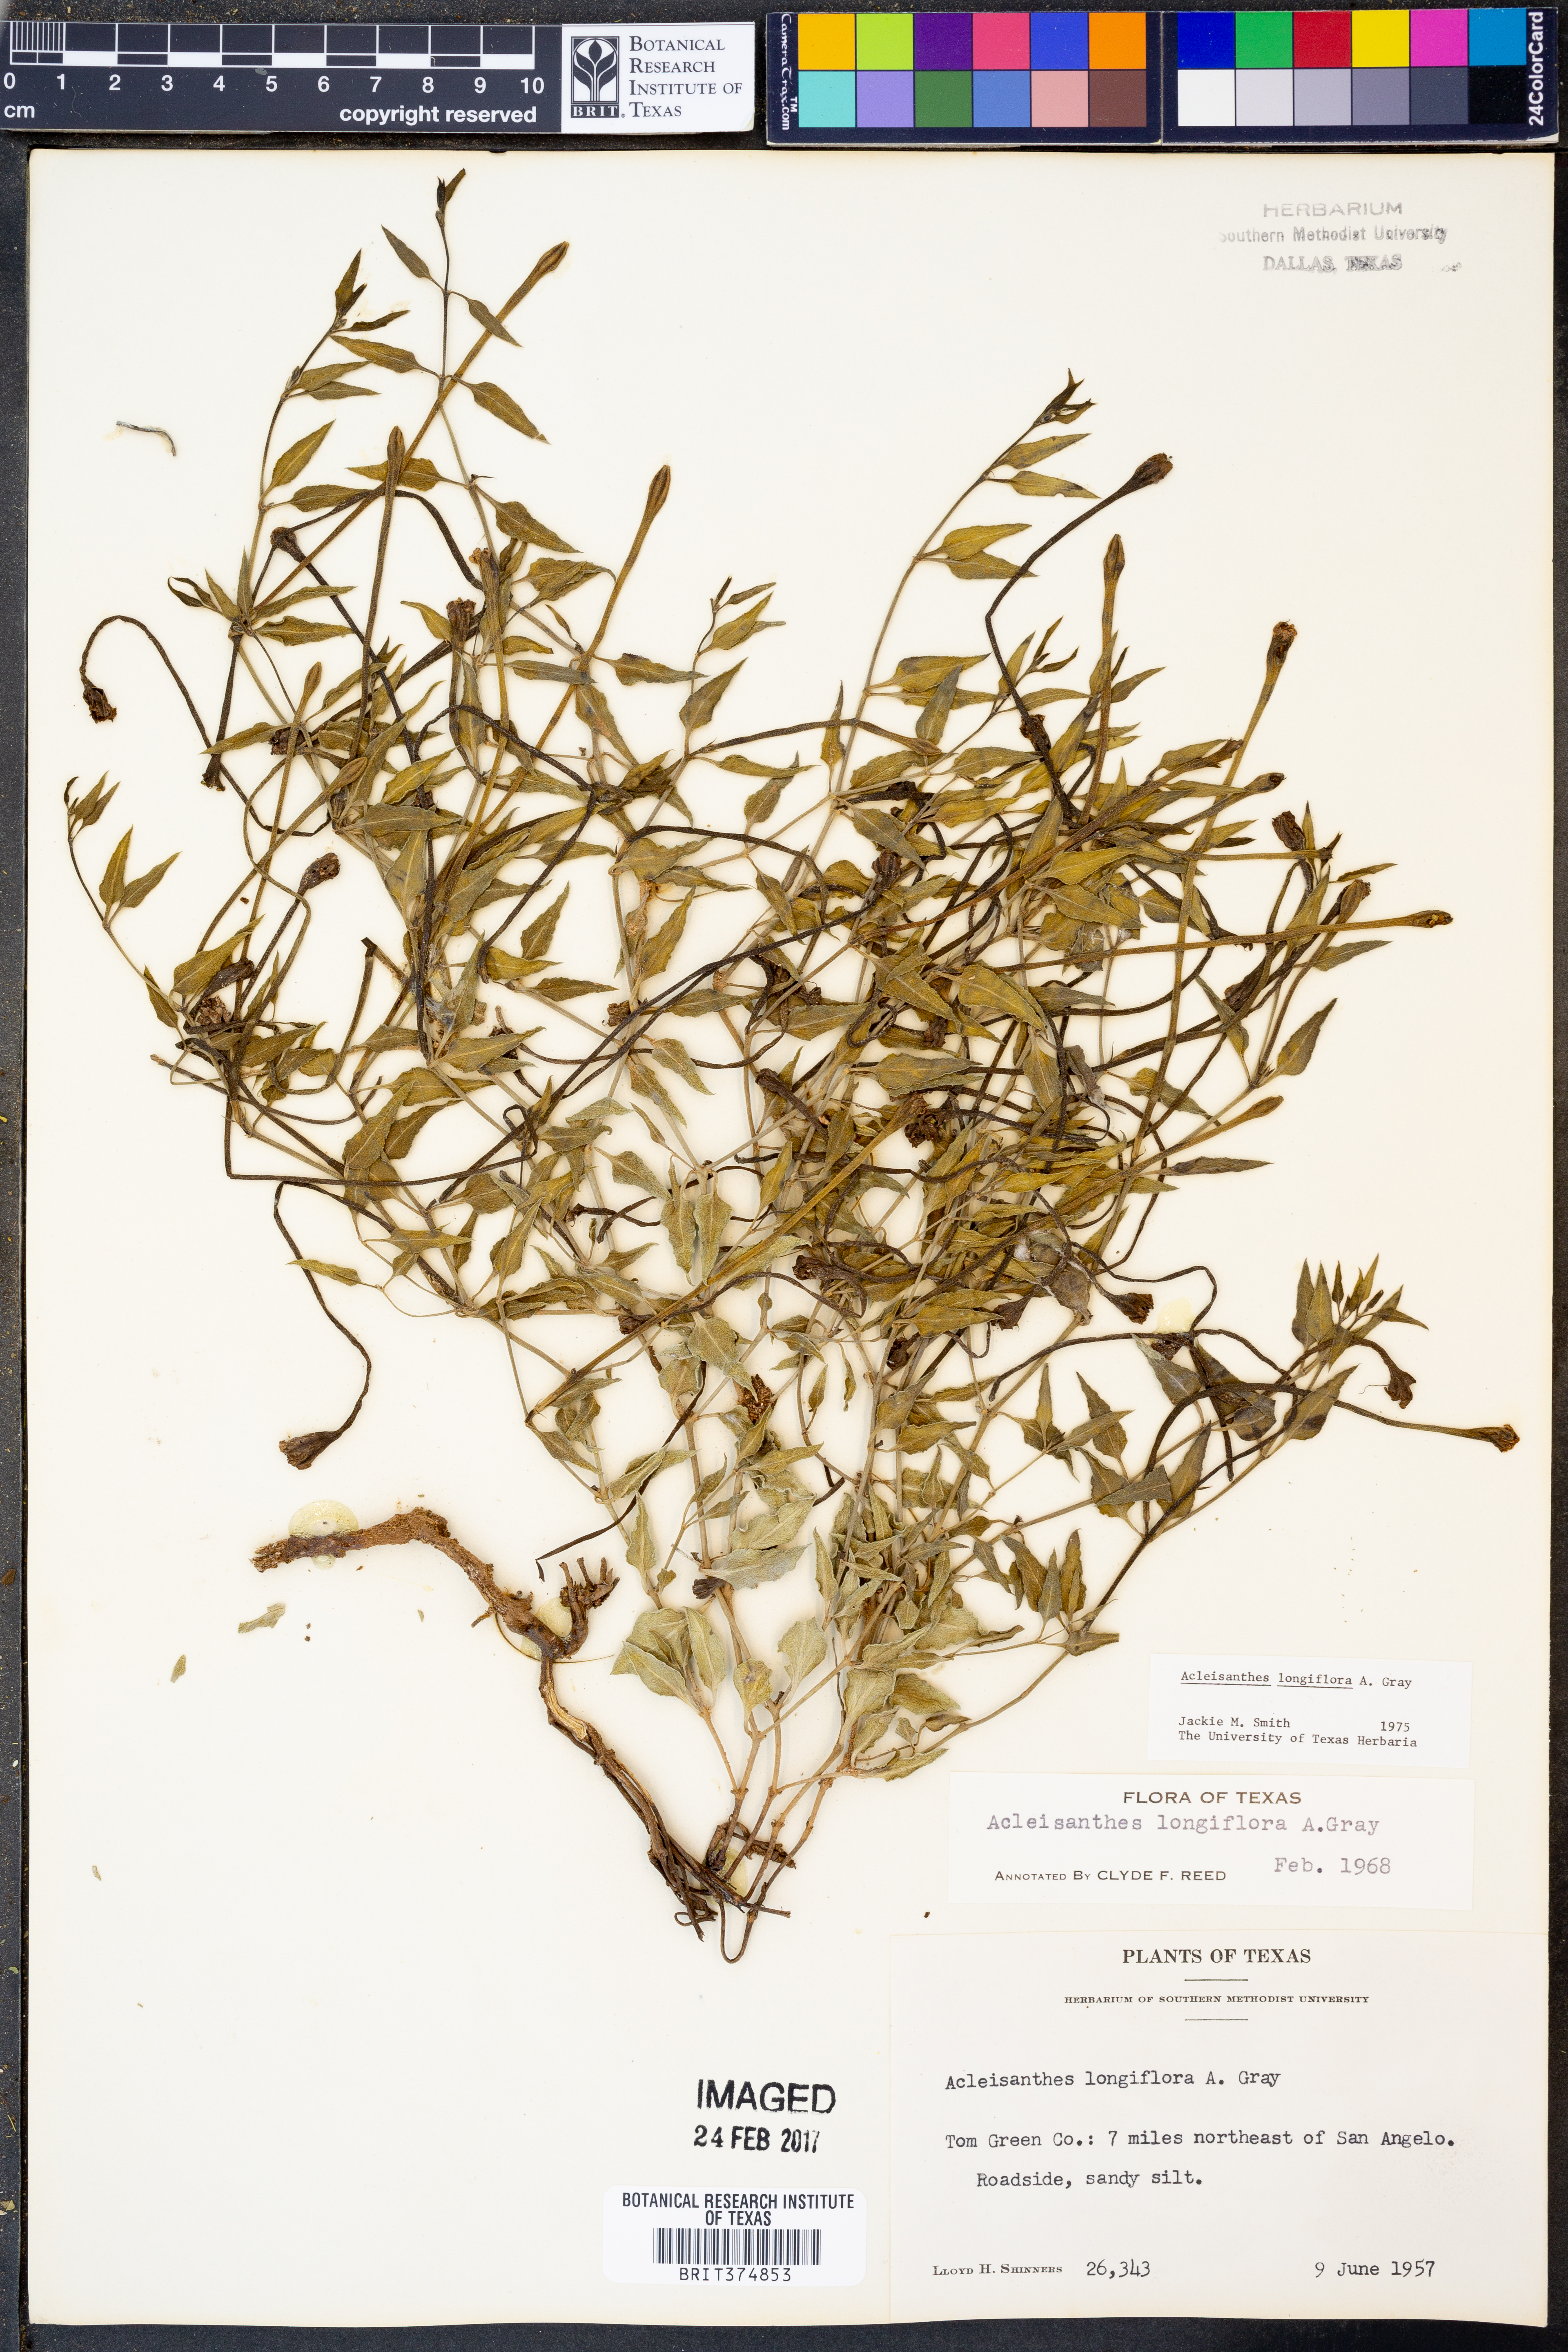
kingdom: Plantae
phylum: Tracheophyta
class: Magnoliopsida
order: Caryophyllales
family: Nyctaginaceae
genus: Acleisanthes
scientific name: Acleisanthes longiflora
